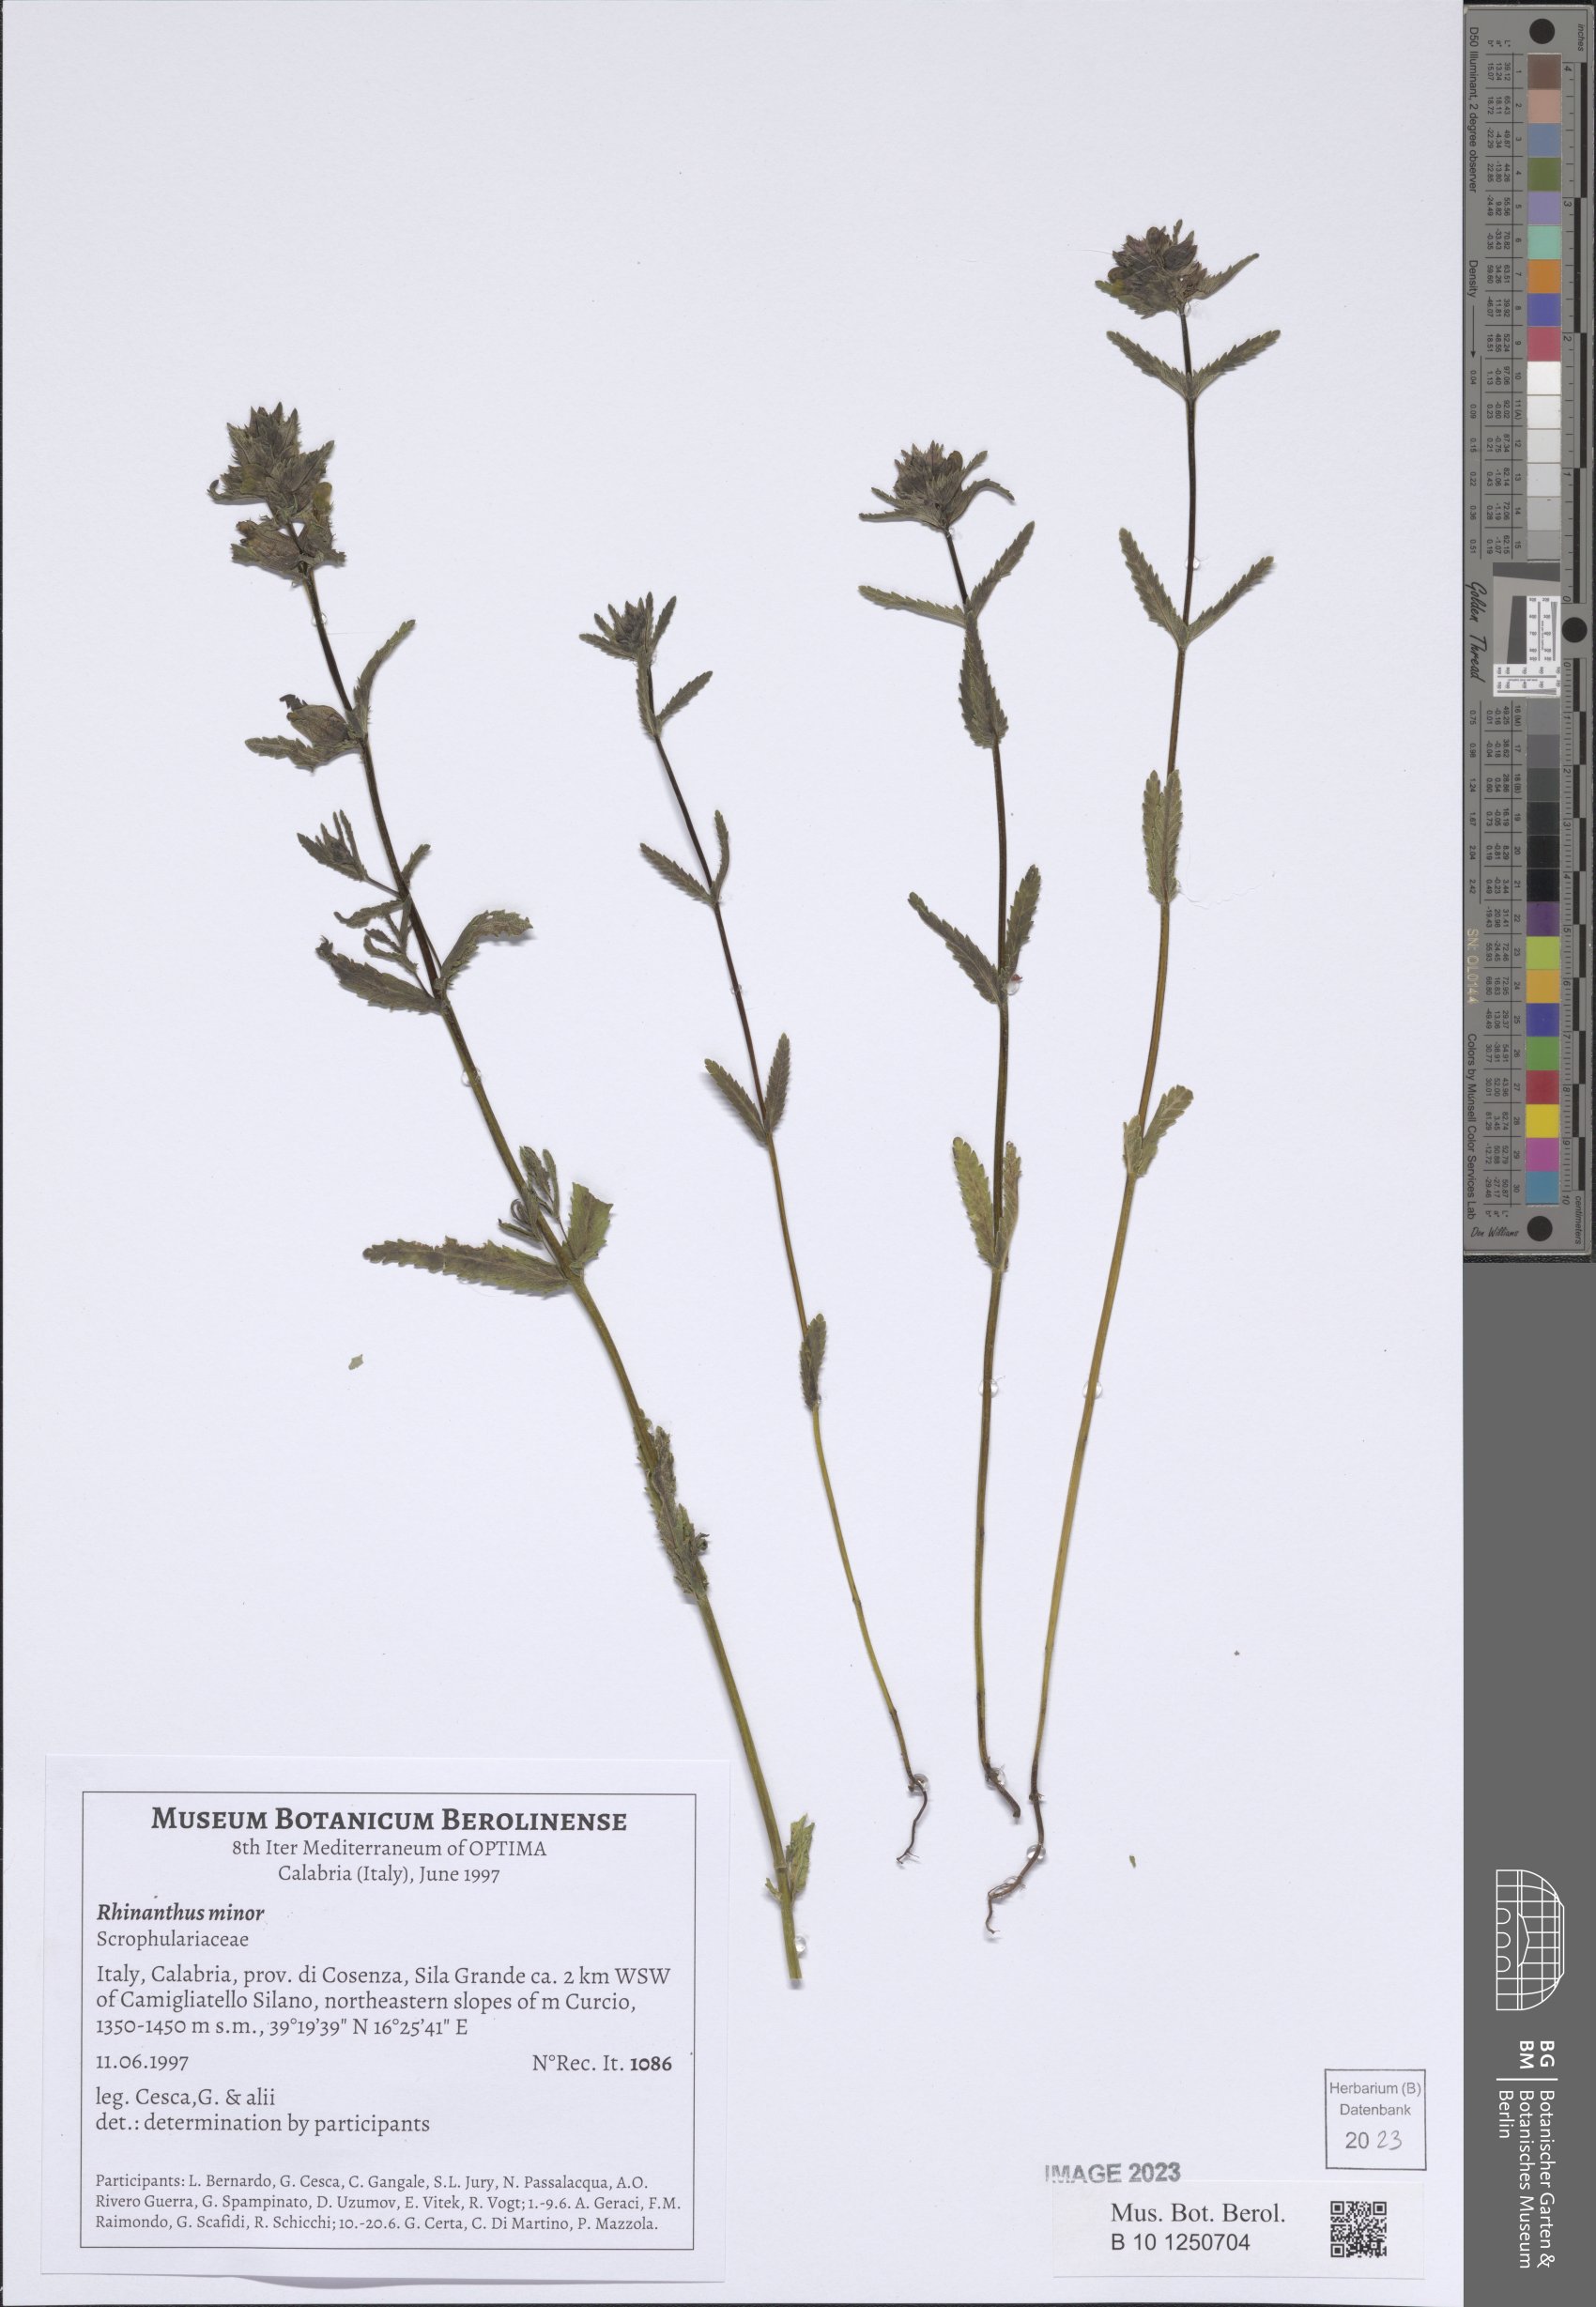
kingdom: Plantae
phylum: Tracheophyta
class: Magnoliopsida
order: Lamiales
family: Orobanchaceae
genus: Rhinanthus
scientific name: Rhinanthus minor
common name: Yellow-rattle
